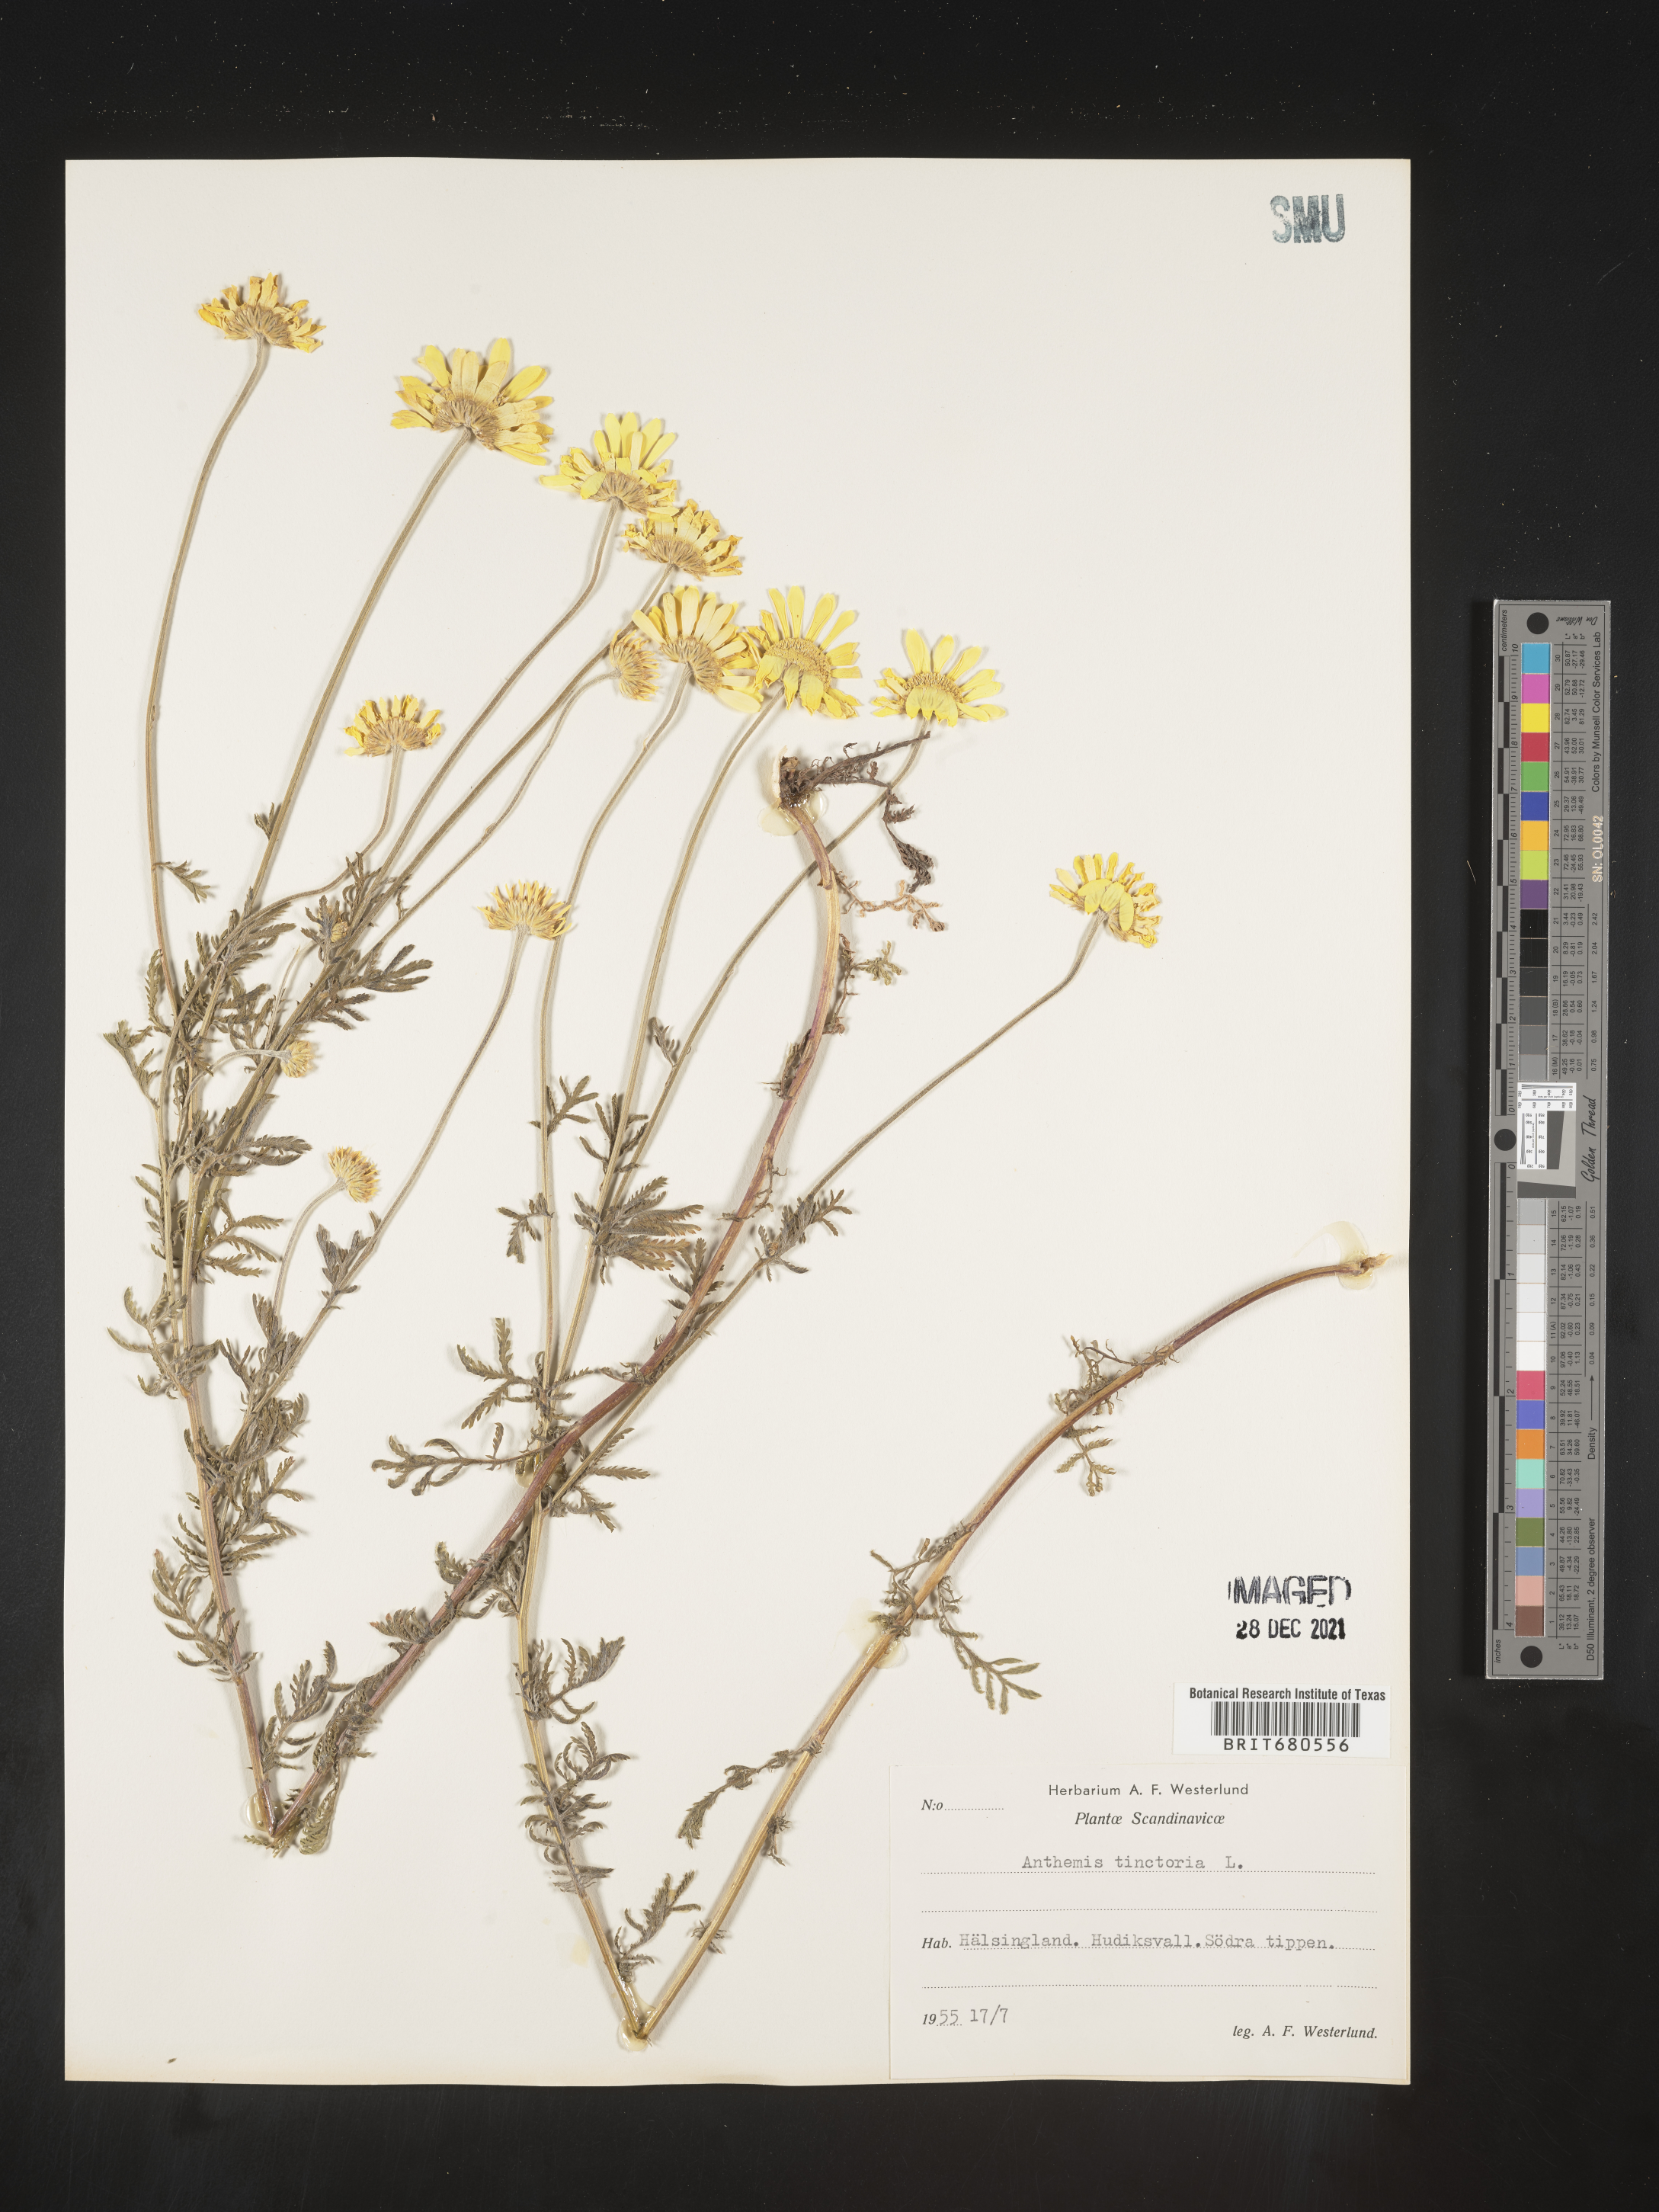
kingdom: Plantae
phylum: Tracheophyta
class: Magnoliopsida
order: Asterales
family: Asteraceae
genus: Anthemis
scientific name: Anthemis
